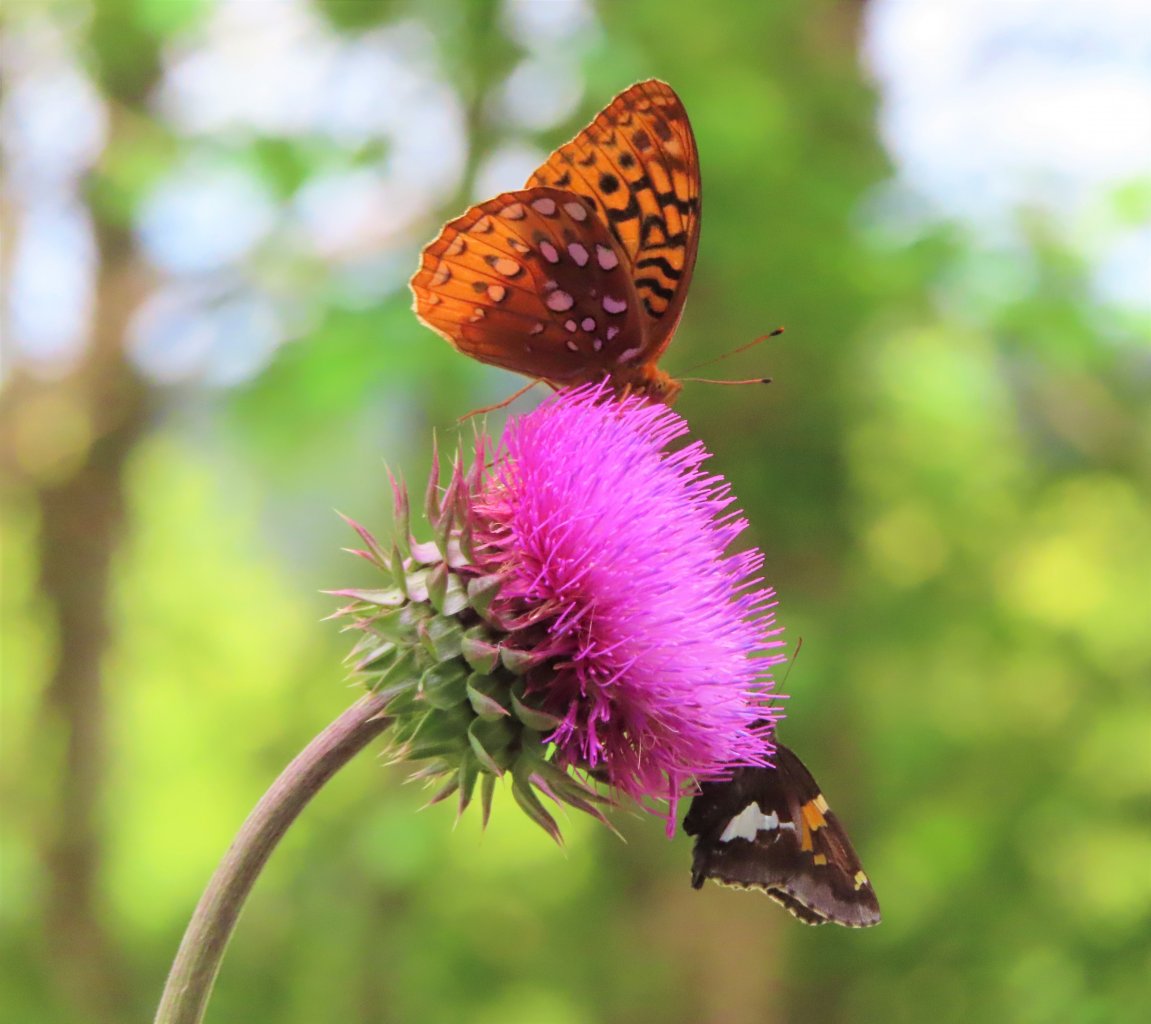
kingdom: Animalia
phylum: Arthropoda
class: Insecta
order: Lepidoptera
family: Nymphalidae
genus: Speyeria
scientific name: Speyeria cybele
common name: Great Spangled Fritillary
